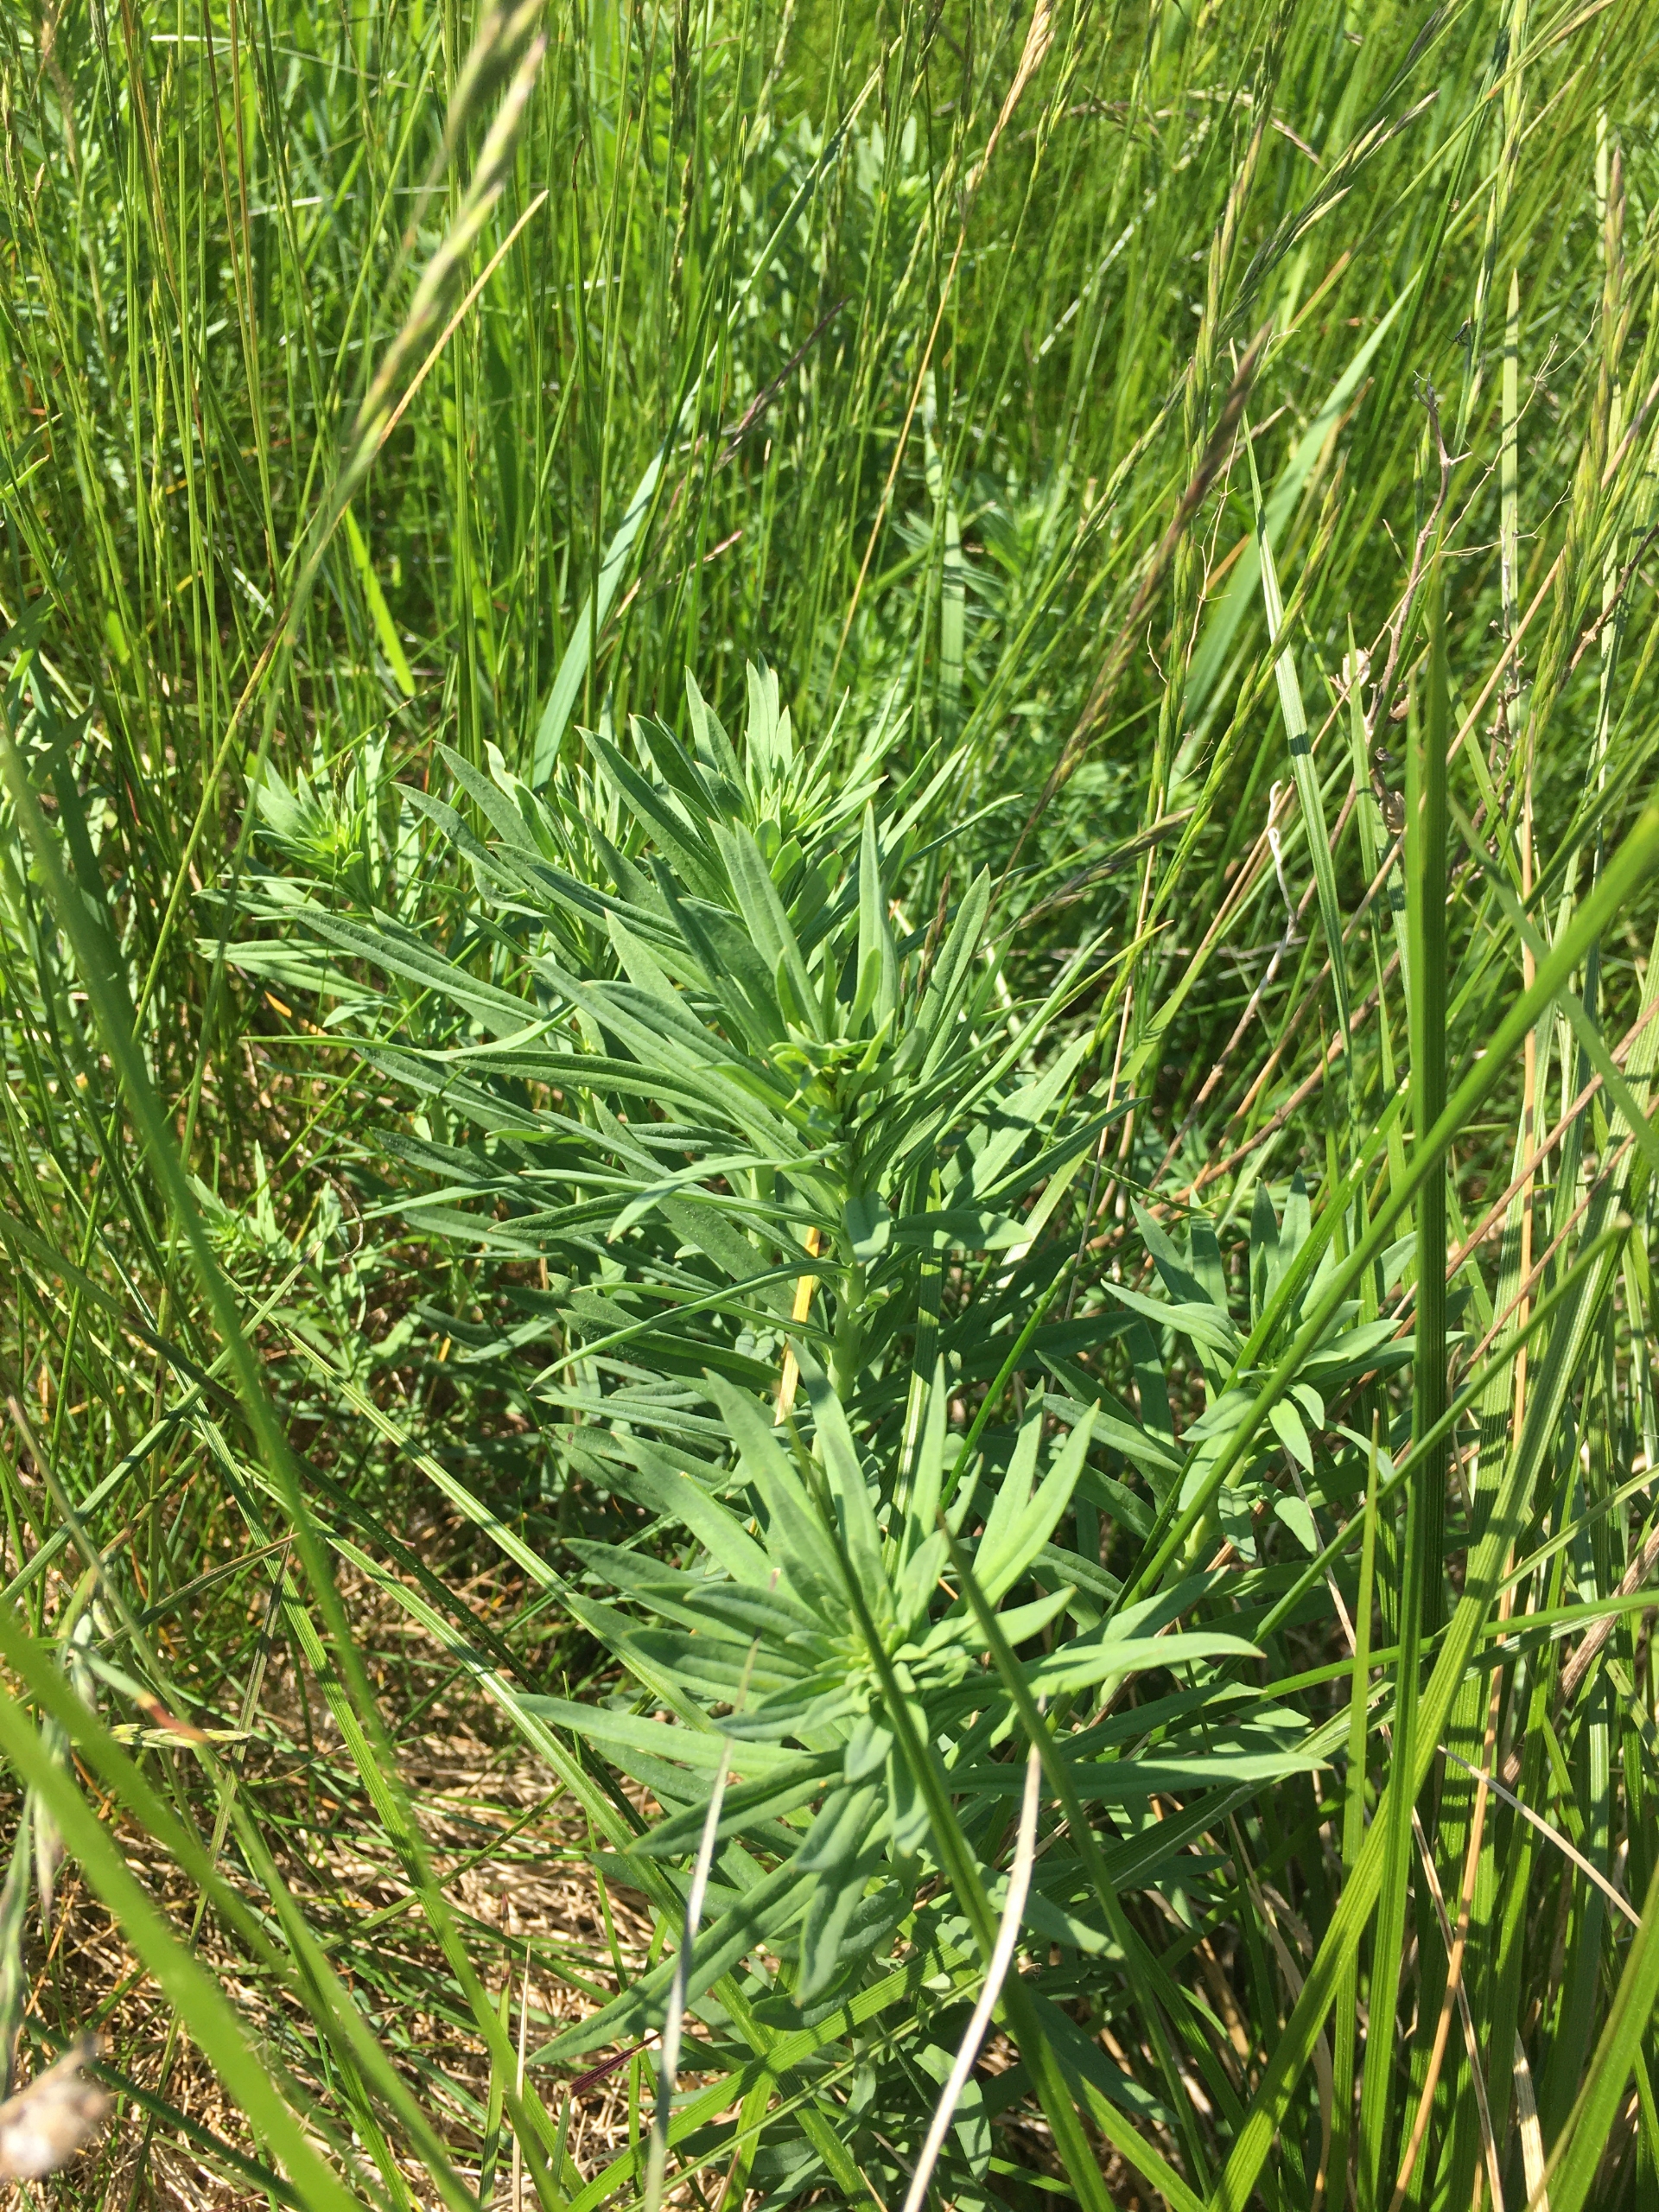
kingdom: Plantae
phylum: Tracheophyta
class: Magnoliopsida
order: Lamiales
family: Plantaginaceae
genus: Linaria
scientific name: Linaria vulgaris
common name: Almindelig torskemund
